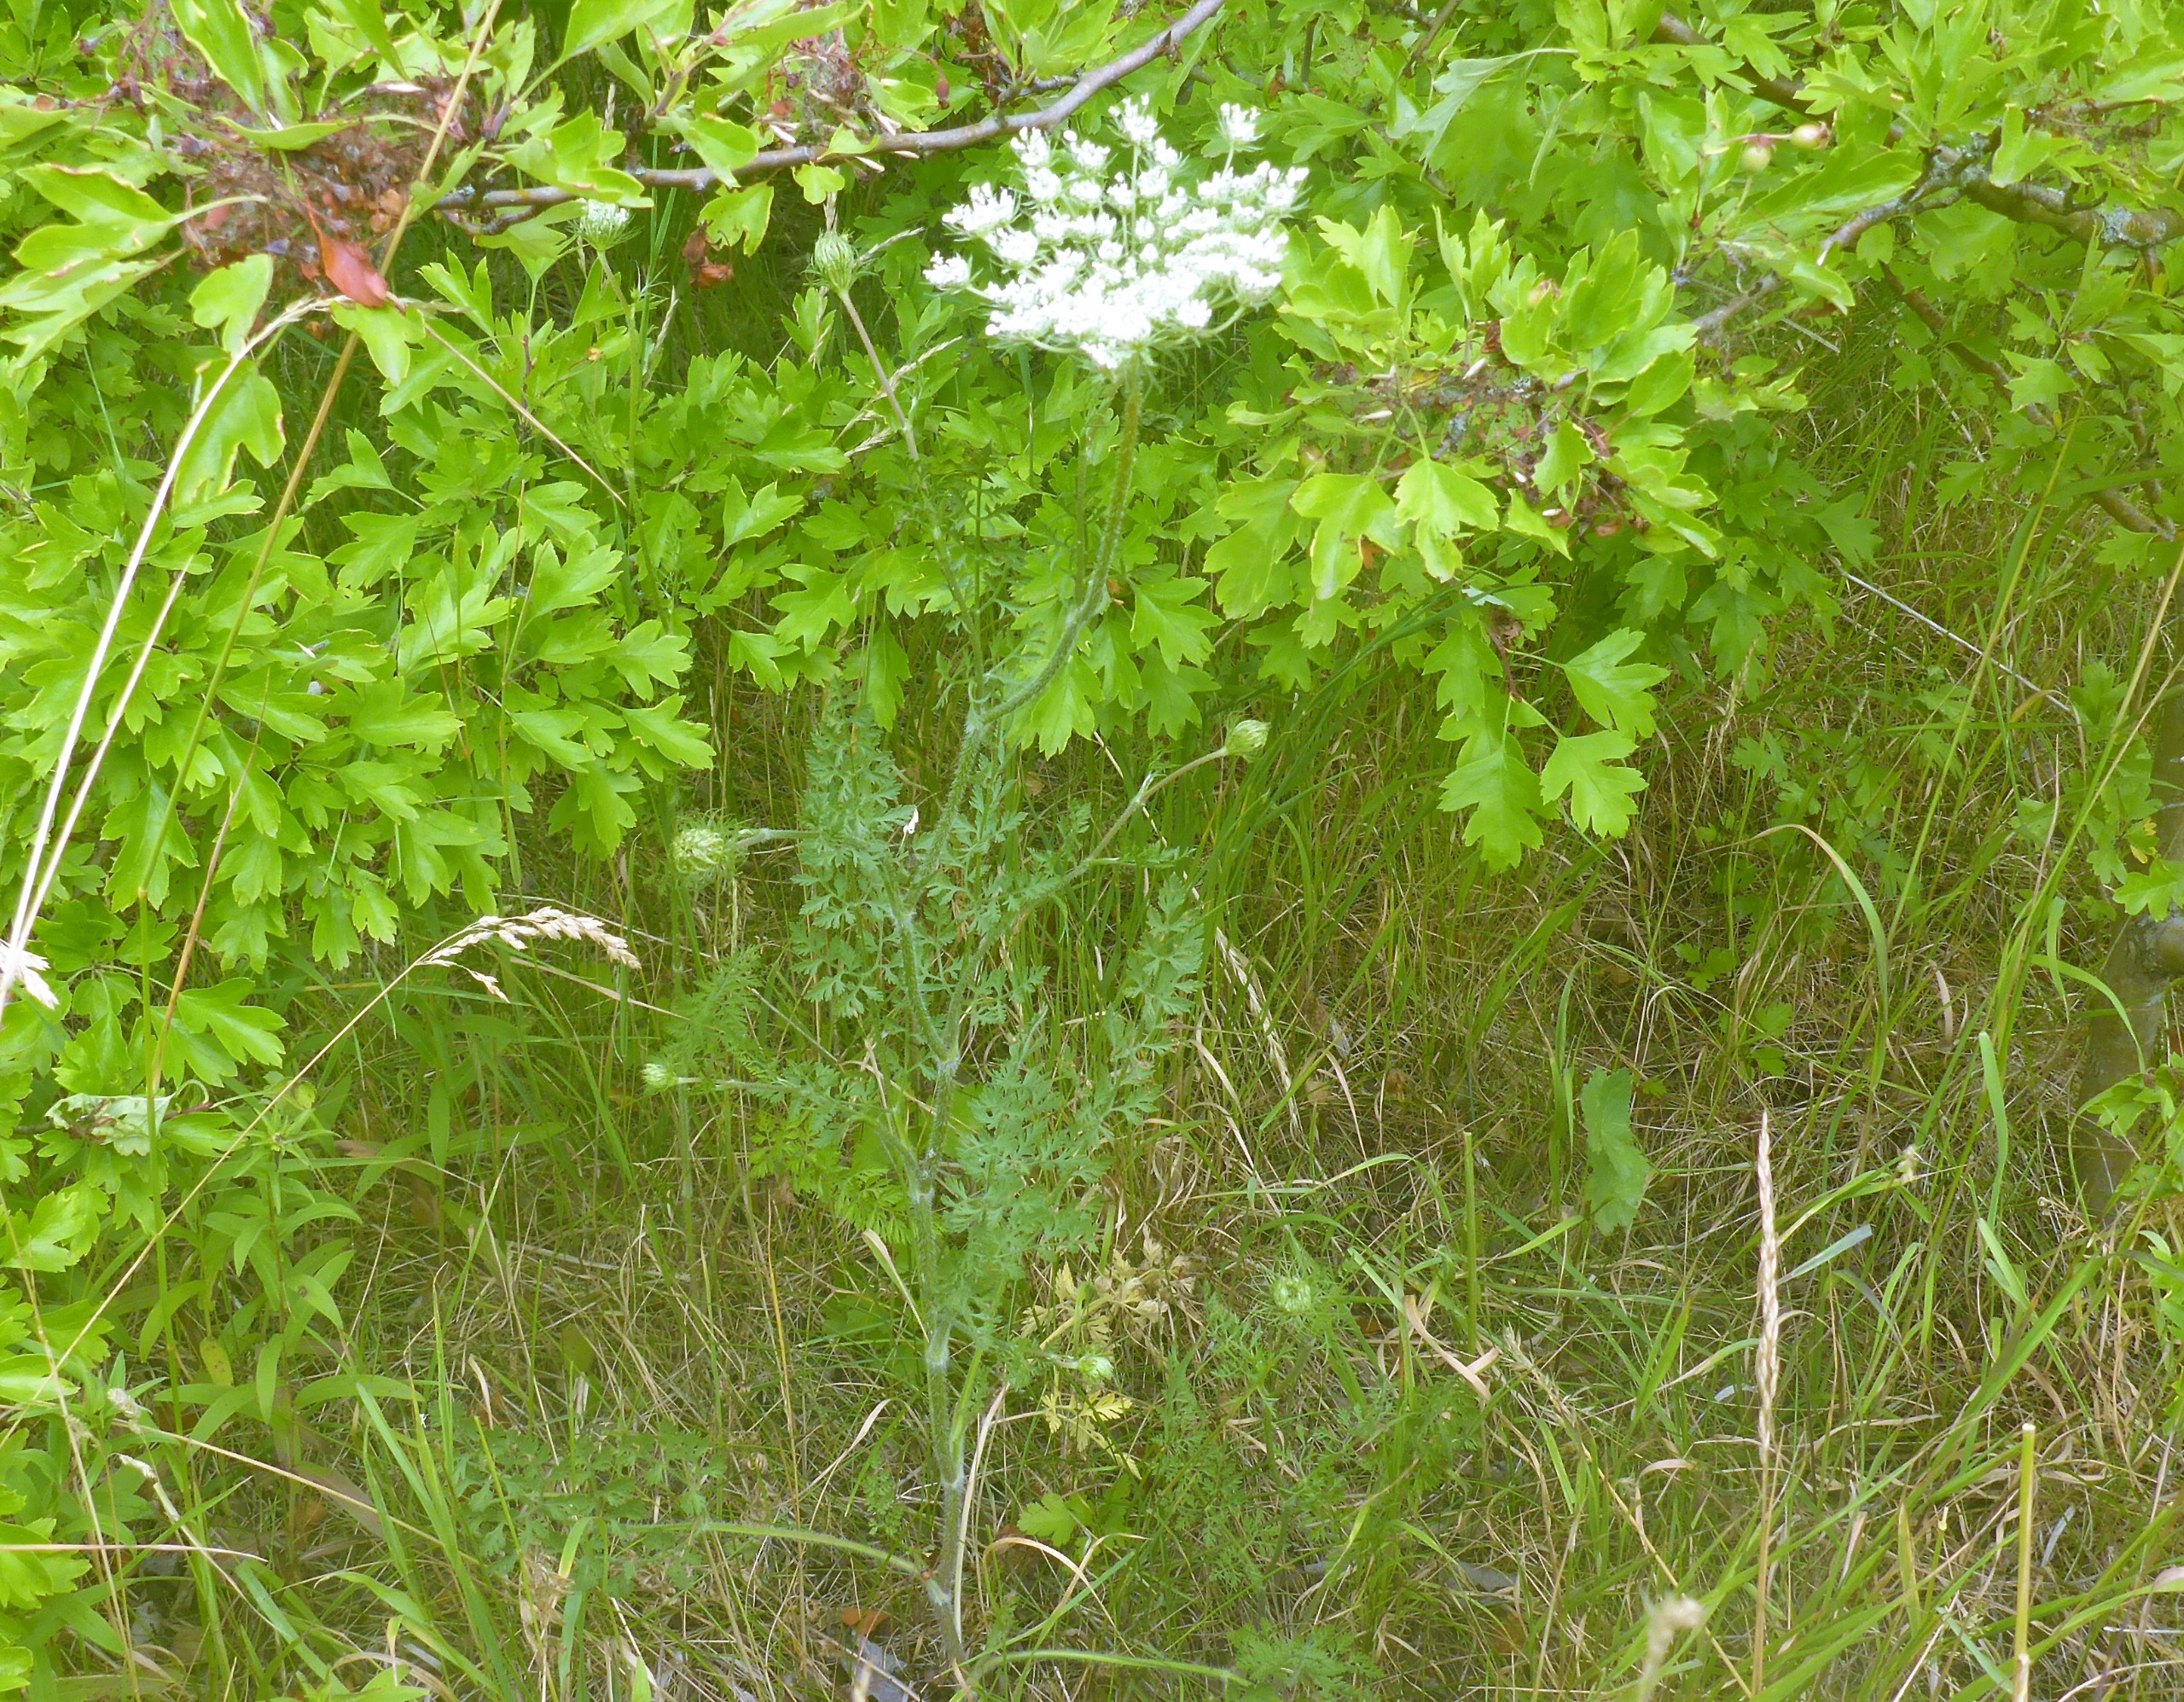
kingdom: Plantae
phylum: Tracheophyta
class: Magnoliopsida
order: Apiales
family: Apiaceae
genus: Daucus
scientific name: Daucus carota
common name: Gulerod
